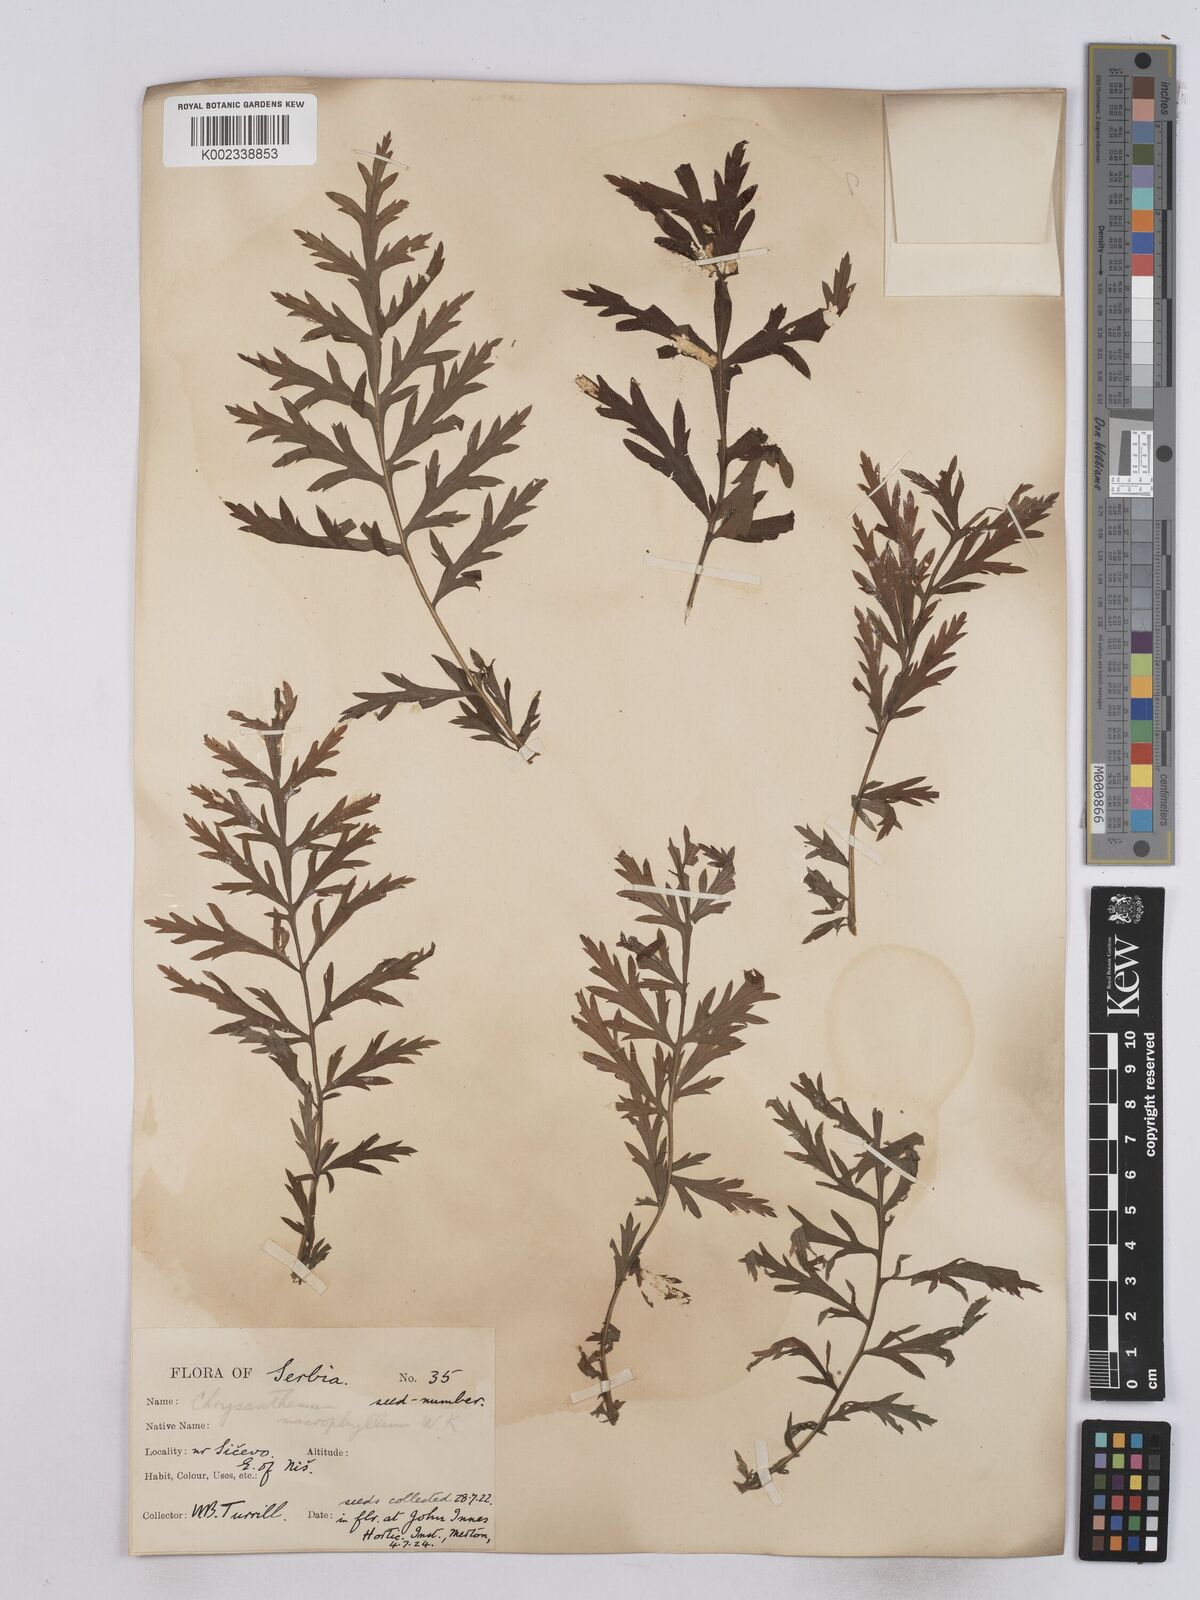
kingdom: Plantae
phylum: Tracheophyta
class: Magnoliopsida
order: Asterales
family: Asteraceae
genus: Tanacetum
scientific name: Tanacetum macrophyllum
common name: Rayed tansy
